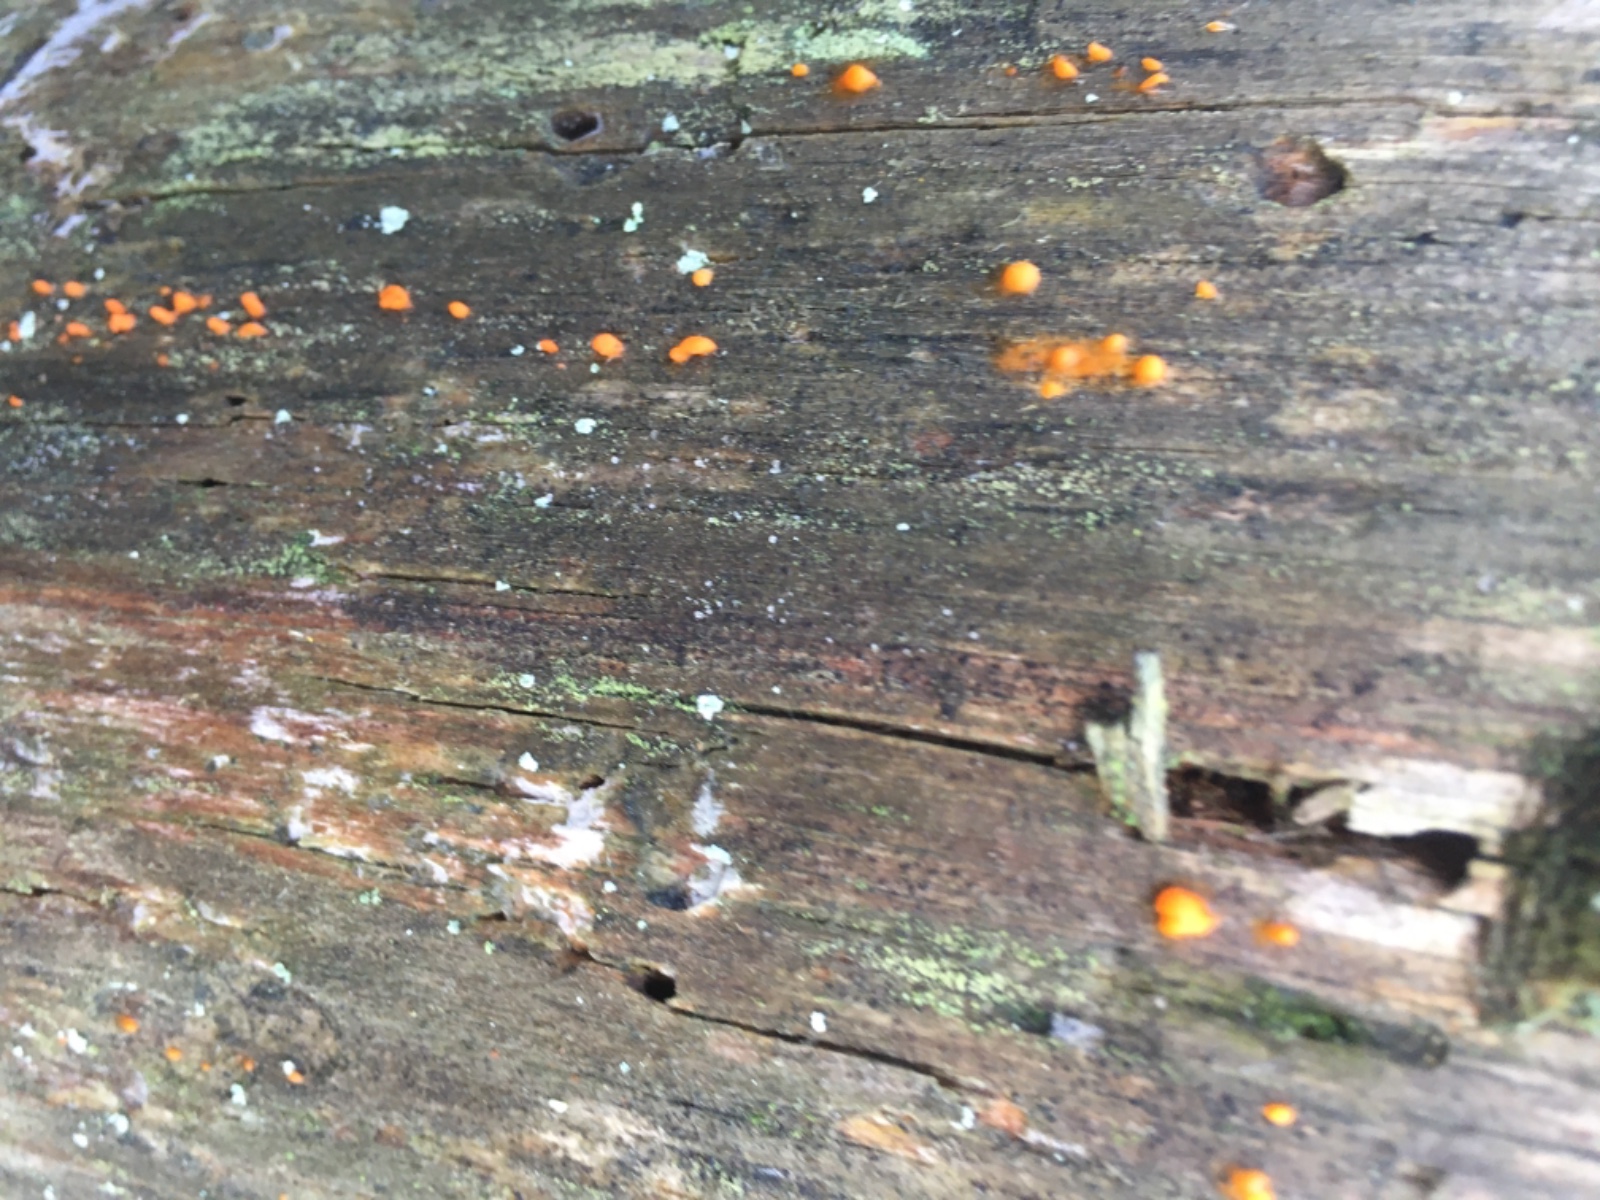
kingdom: Fungi
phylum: Basidiomycota
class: Dacrymycetes
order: Dacrymycetales
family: Dacrymycetaceae
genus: Dacrymyces
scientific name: Dacrymyces stillatus
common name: almindelig tåresvamp
